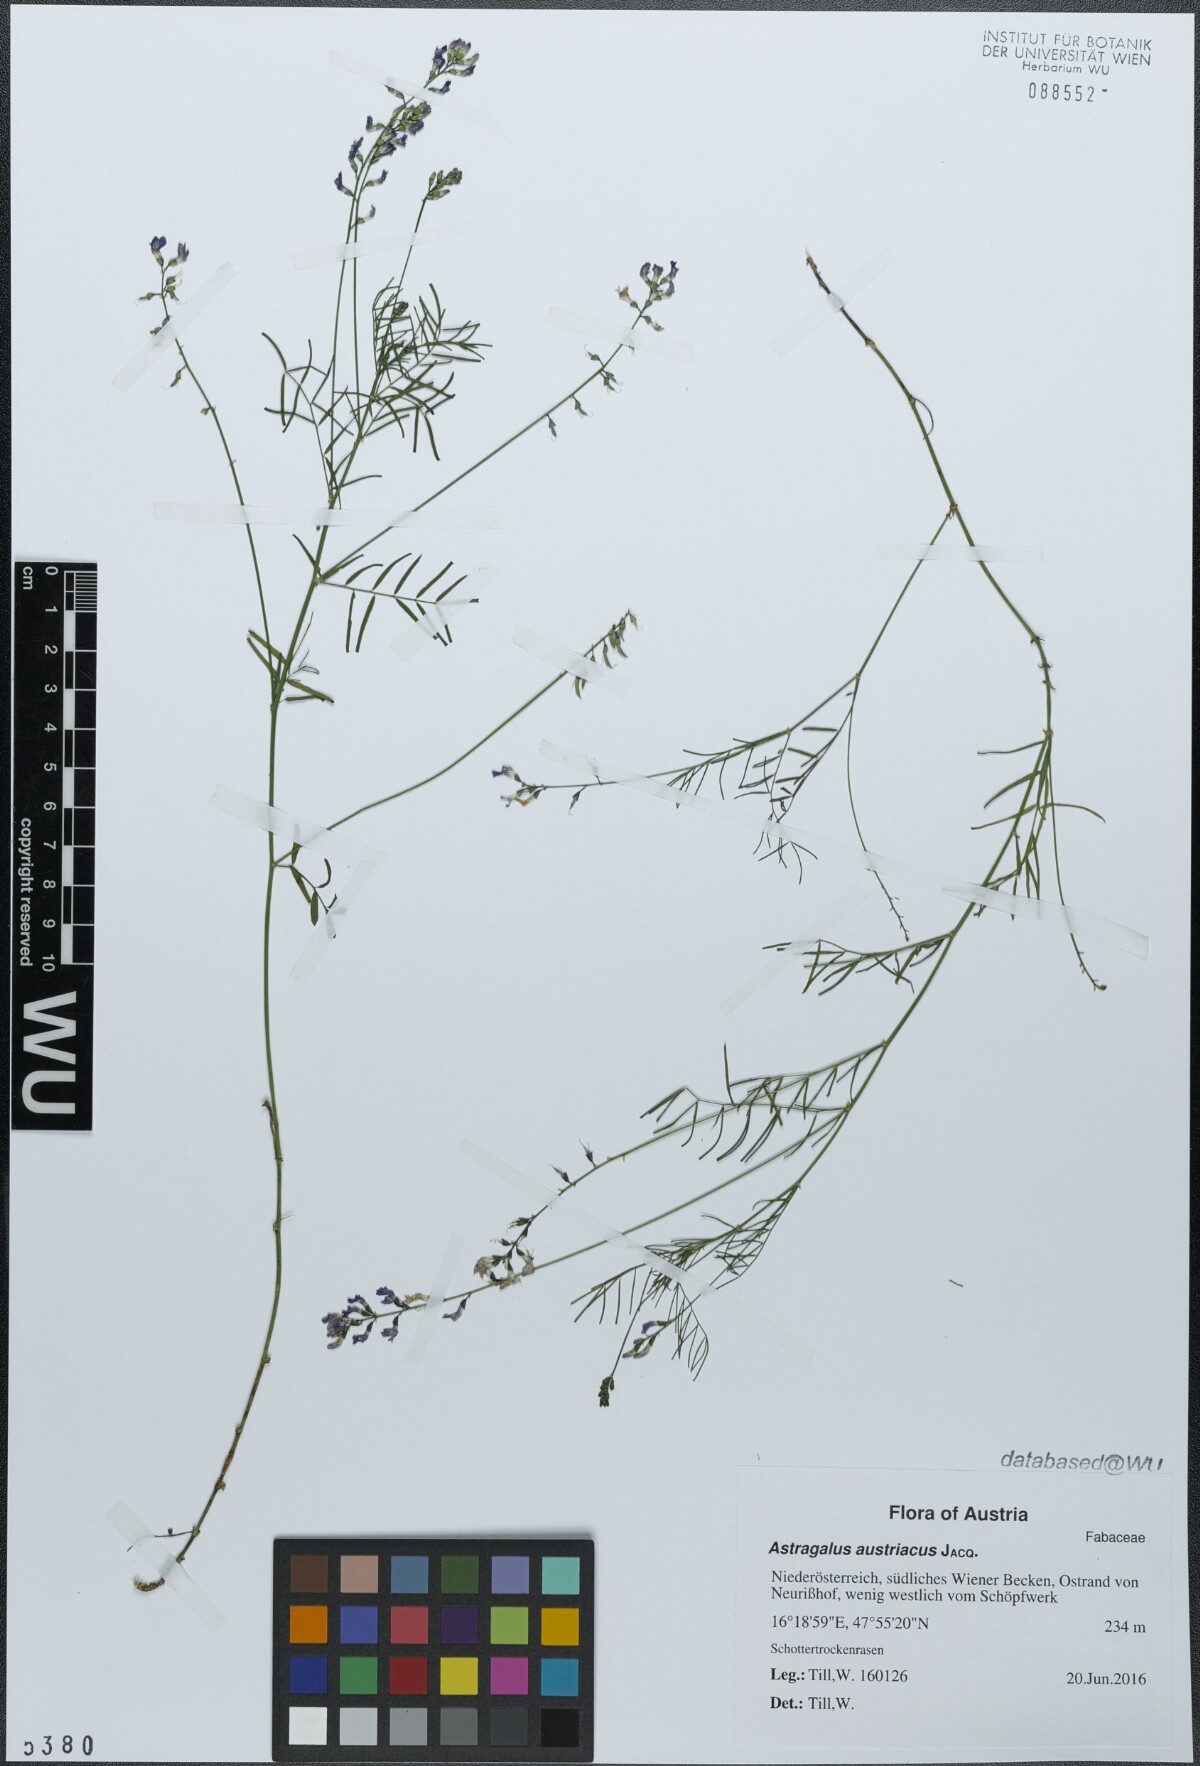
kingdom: Plantae
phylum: Tracheophyta
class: Magnoliopsida
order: Fabales
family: Fabaceae
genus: Astragalus
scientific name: Astragalus austriacus
